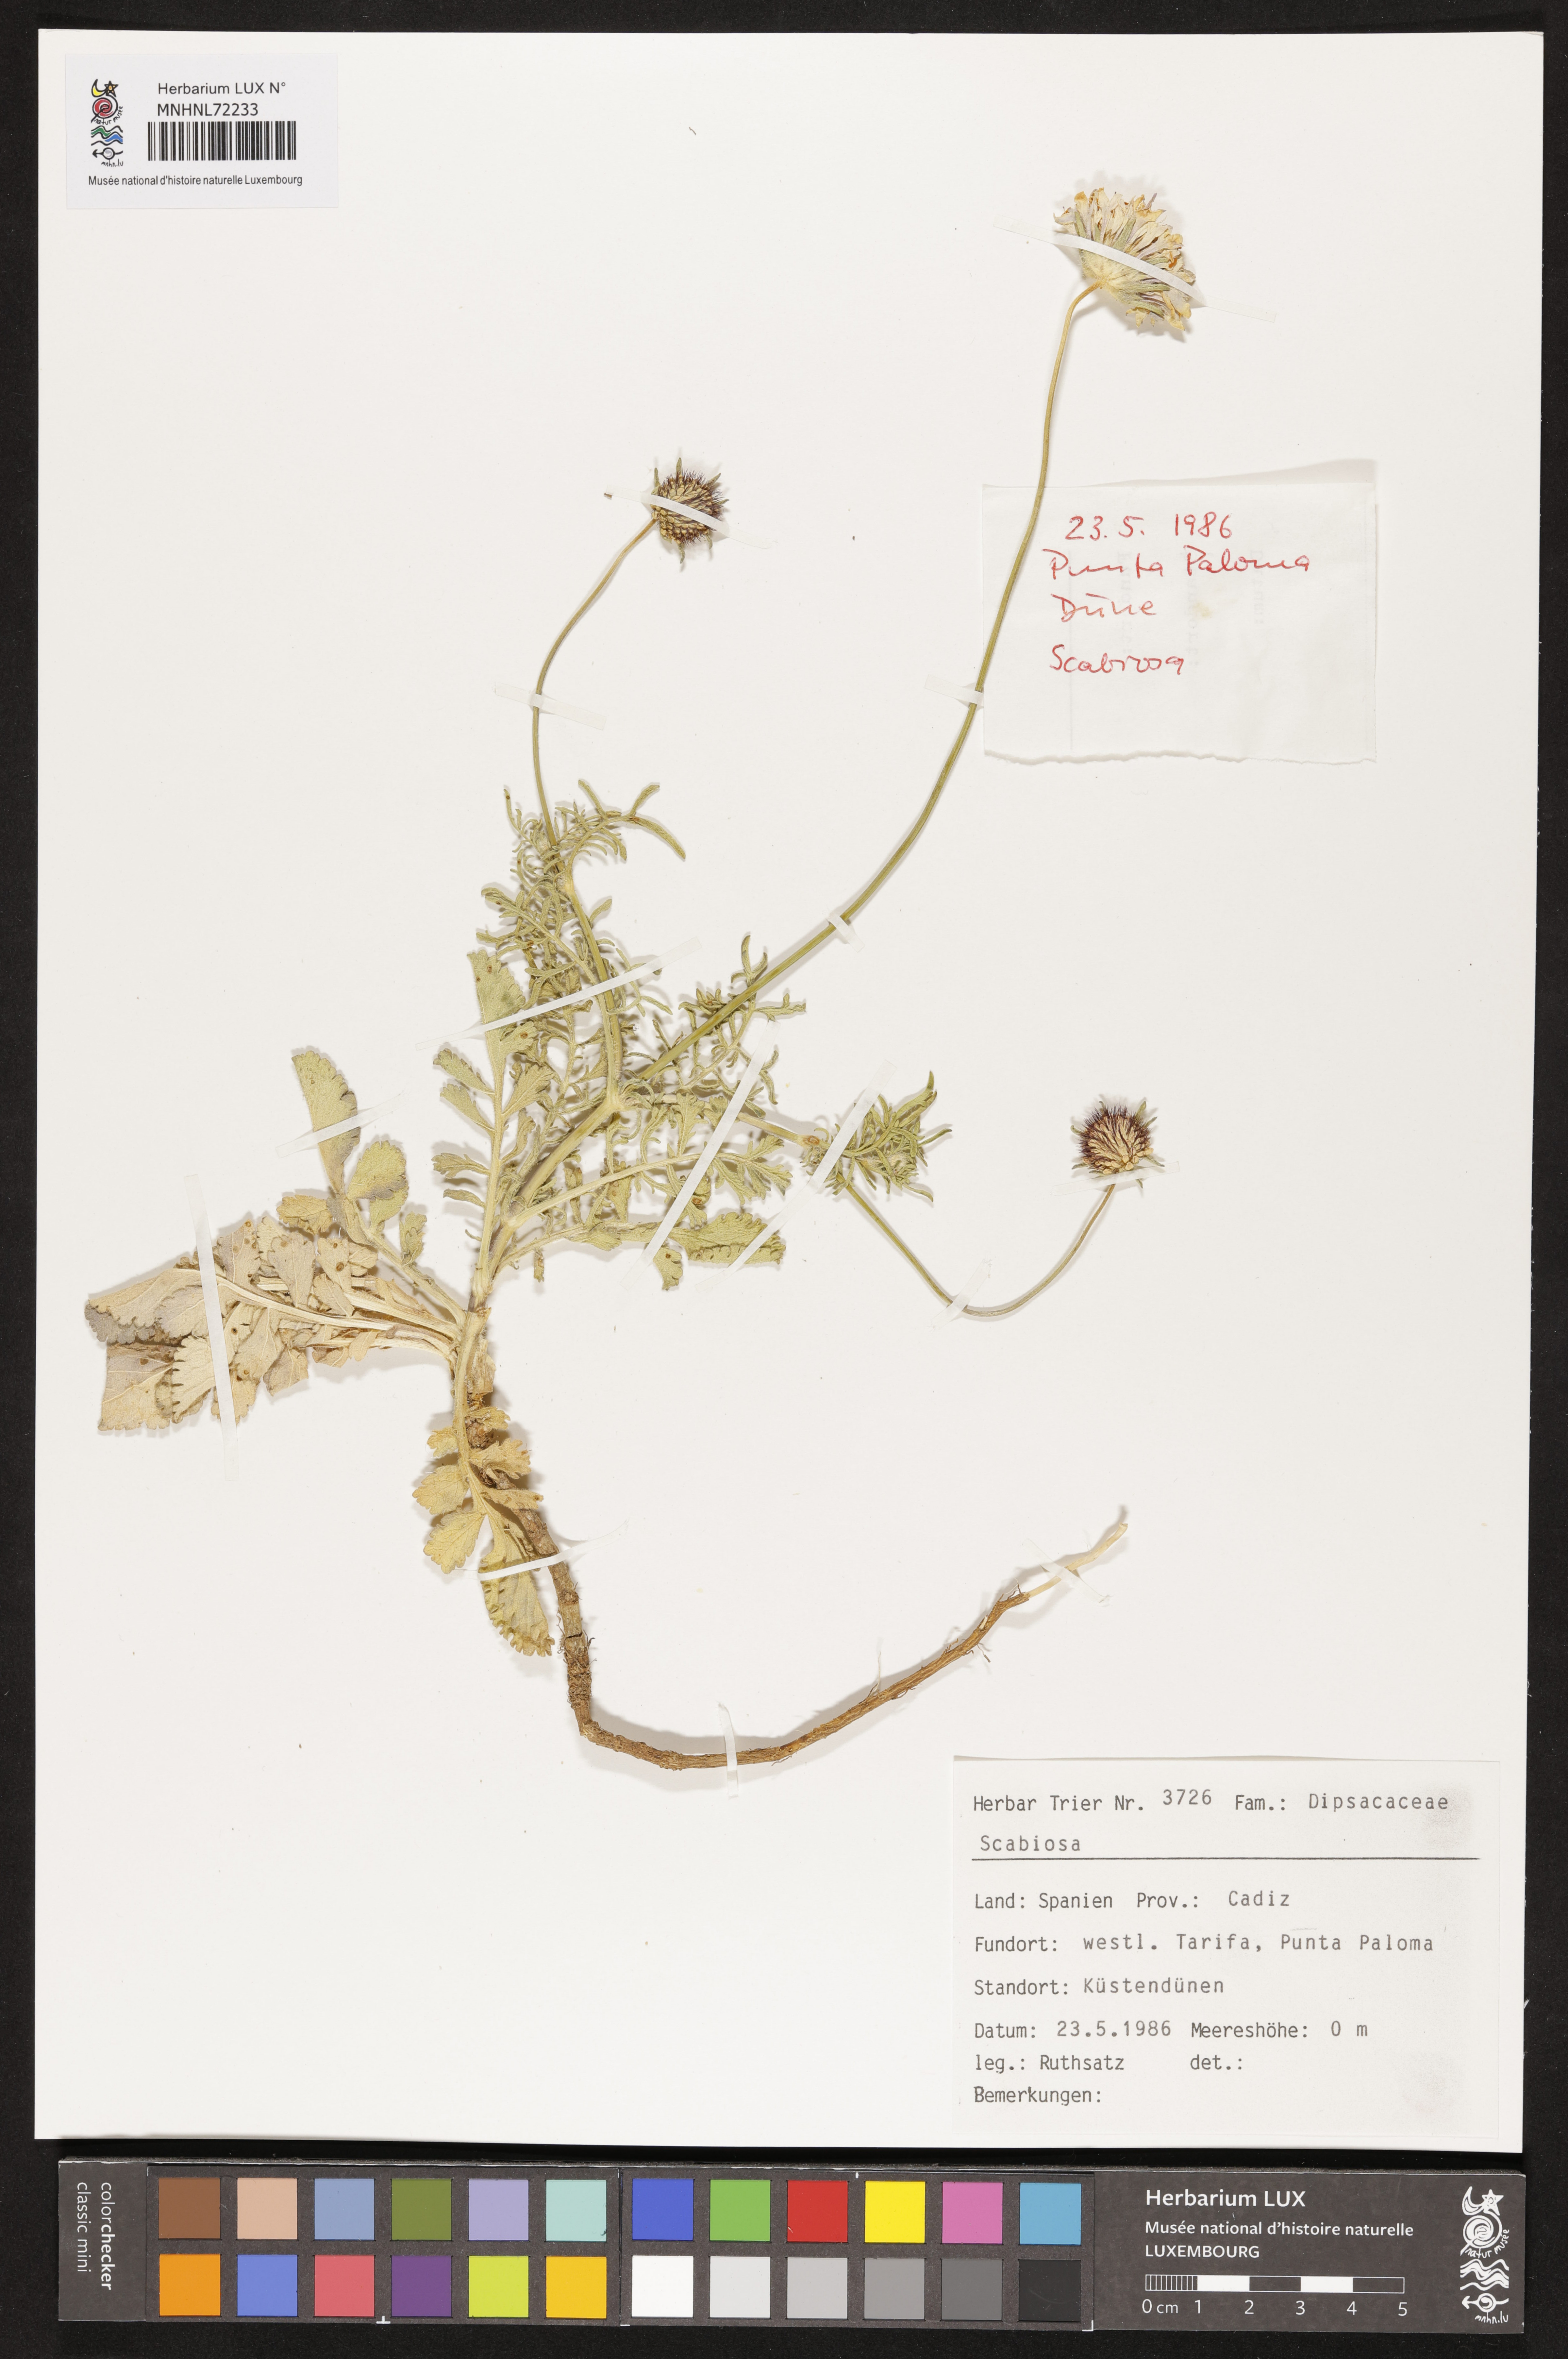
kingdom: Plantae
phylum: Tracheophyta
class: Magnoliopsida
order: Dipsacales
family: Caprifoliaceae
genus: Scabiosa
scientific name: Scabiosa
